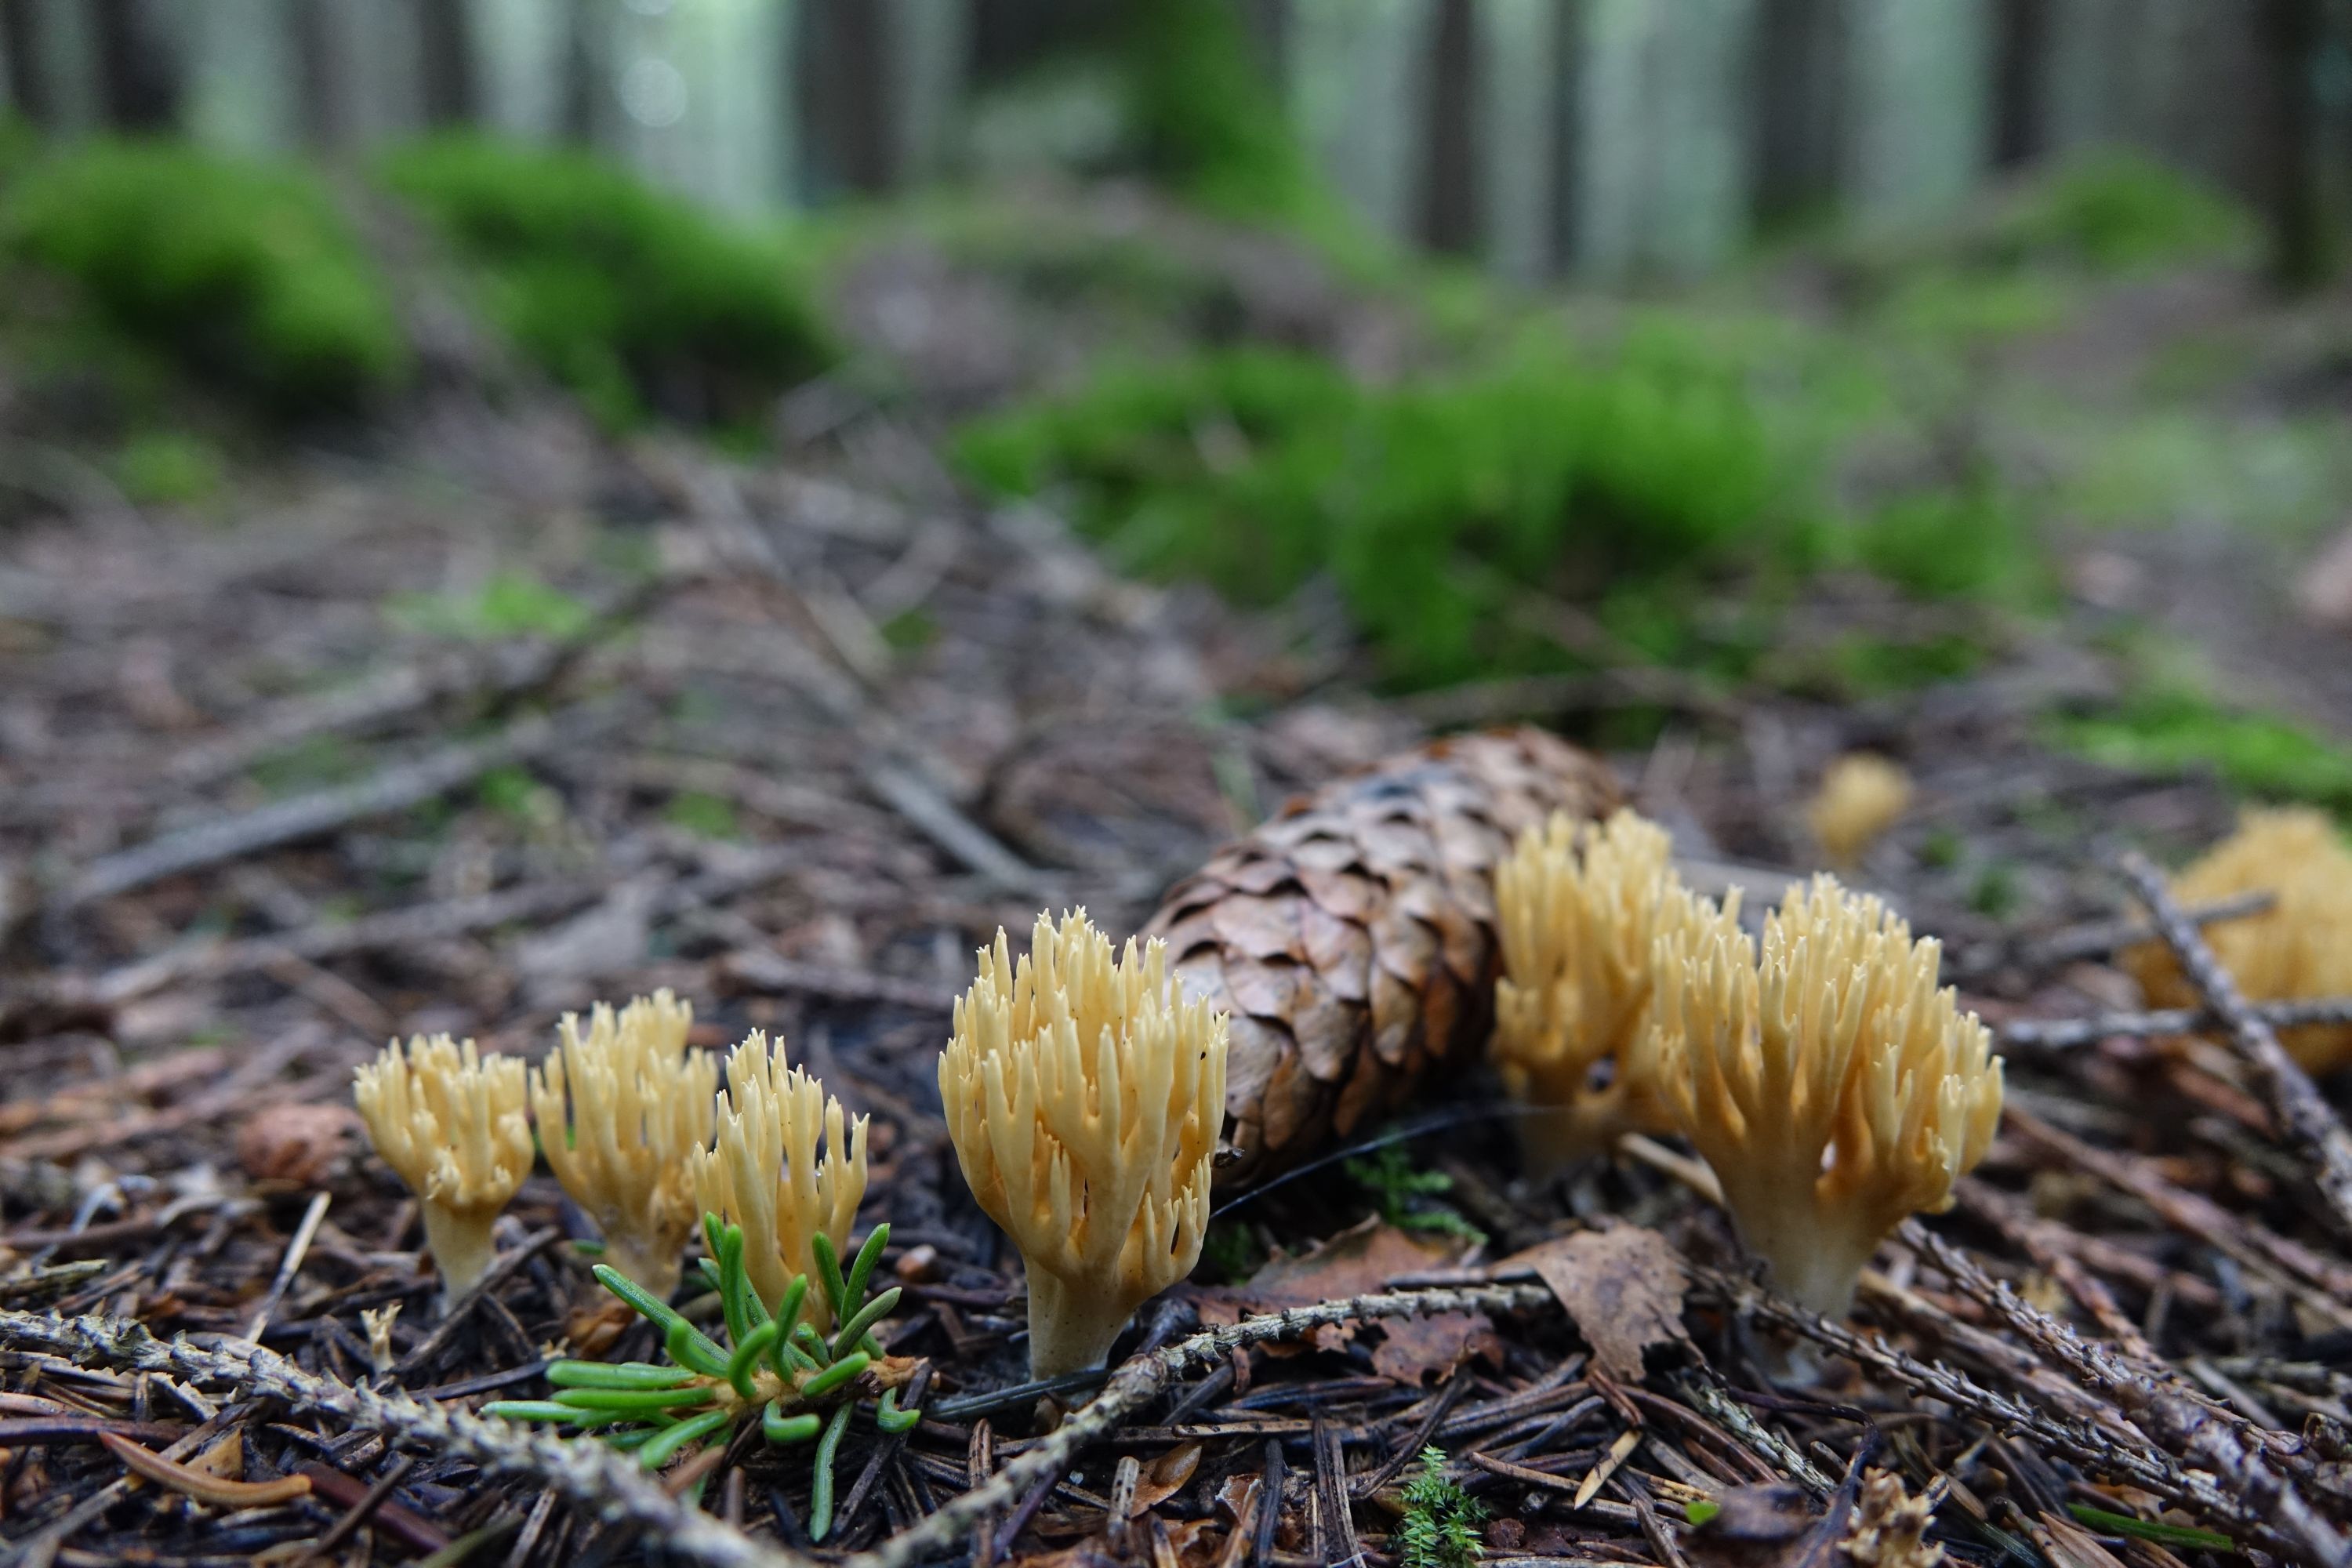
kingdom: Fungi
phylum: Basidiomycota
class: Agaricomycetes
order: Gomphales
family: Gomphaceae
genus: Phaeoclavulina
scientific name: Phaeoclavulina eumorpha
